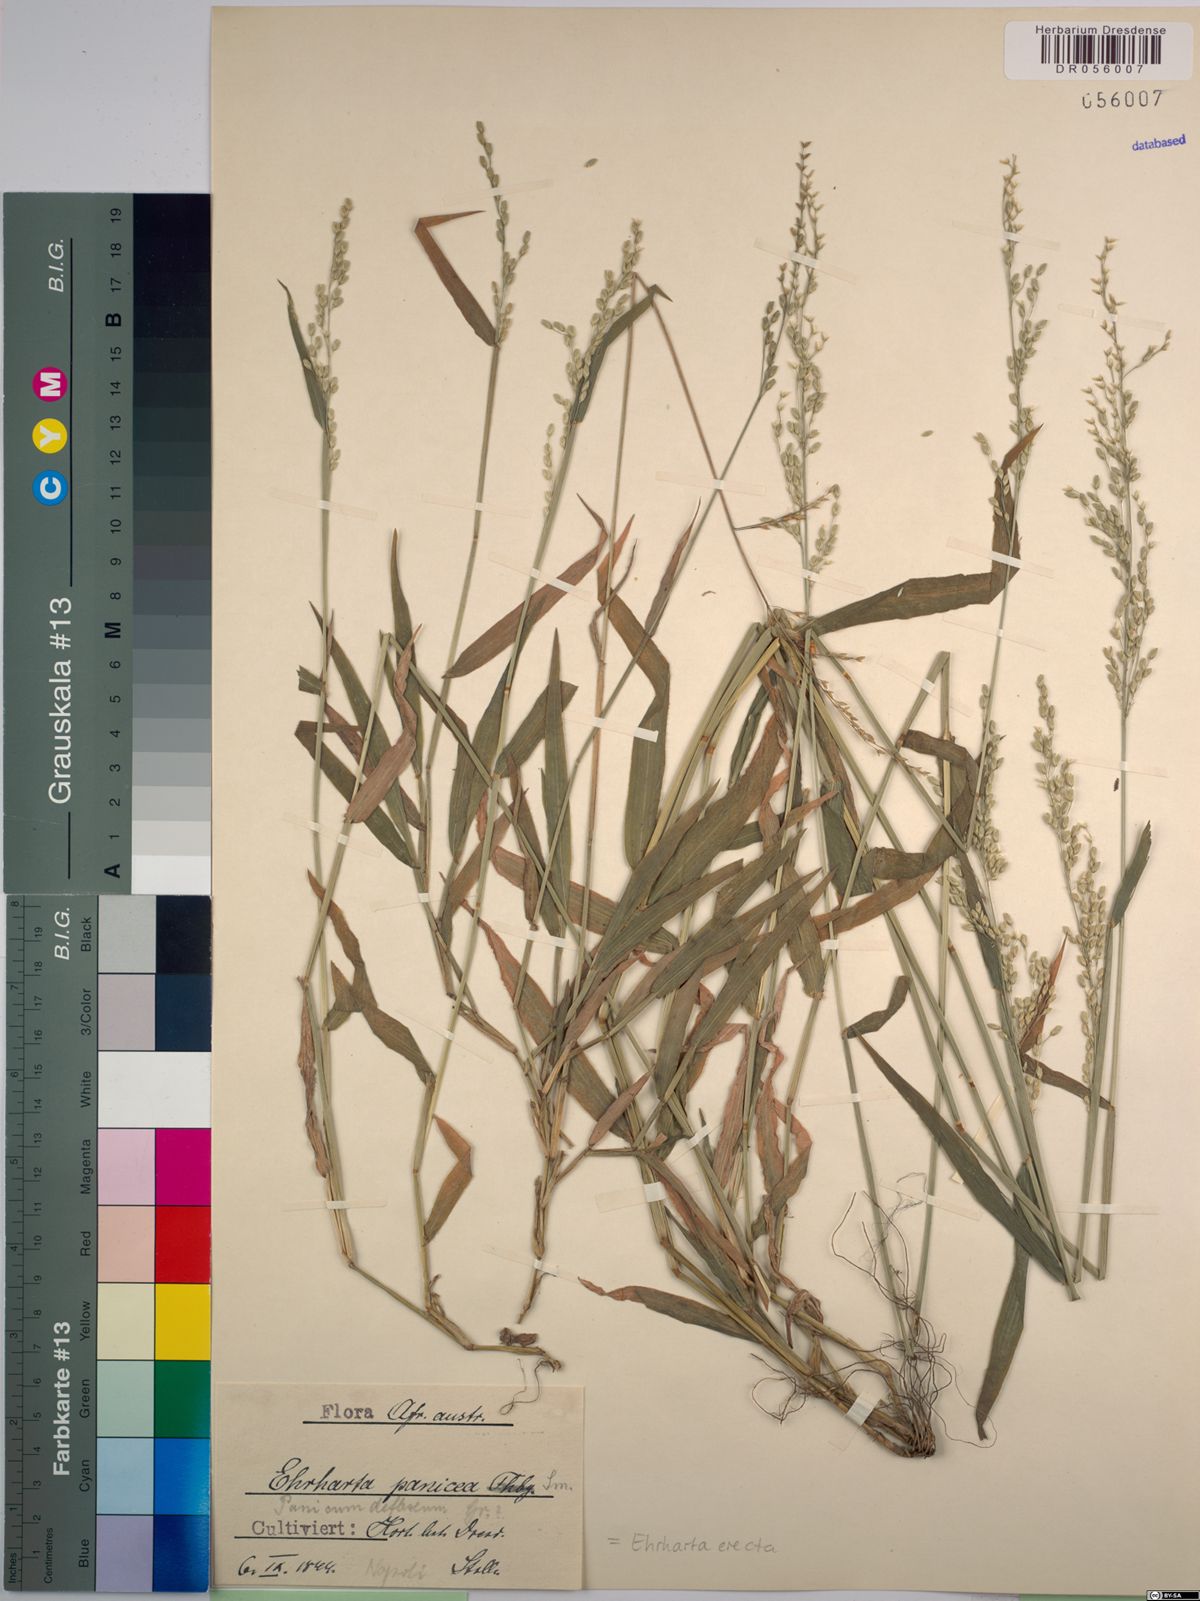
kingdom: Plantae
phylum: Tracheophyta
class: Liliopsida
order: Poales
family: Poaceae
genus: Ehrharta
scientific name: Ehrharta erecta
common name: Panic veldtgrass
